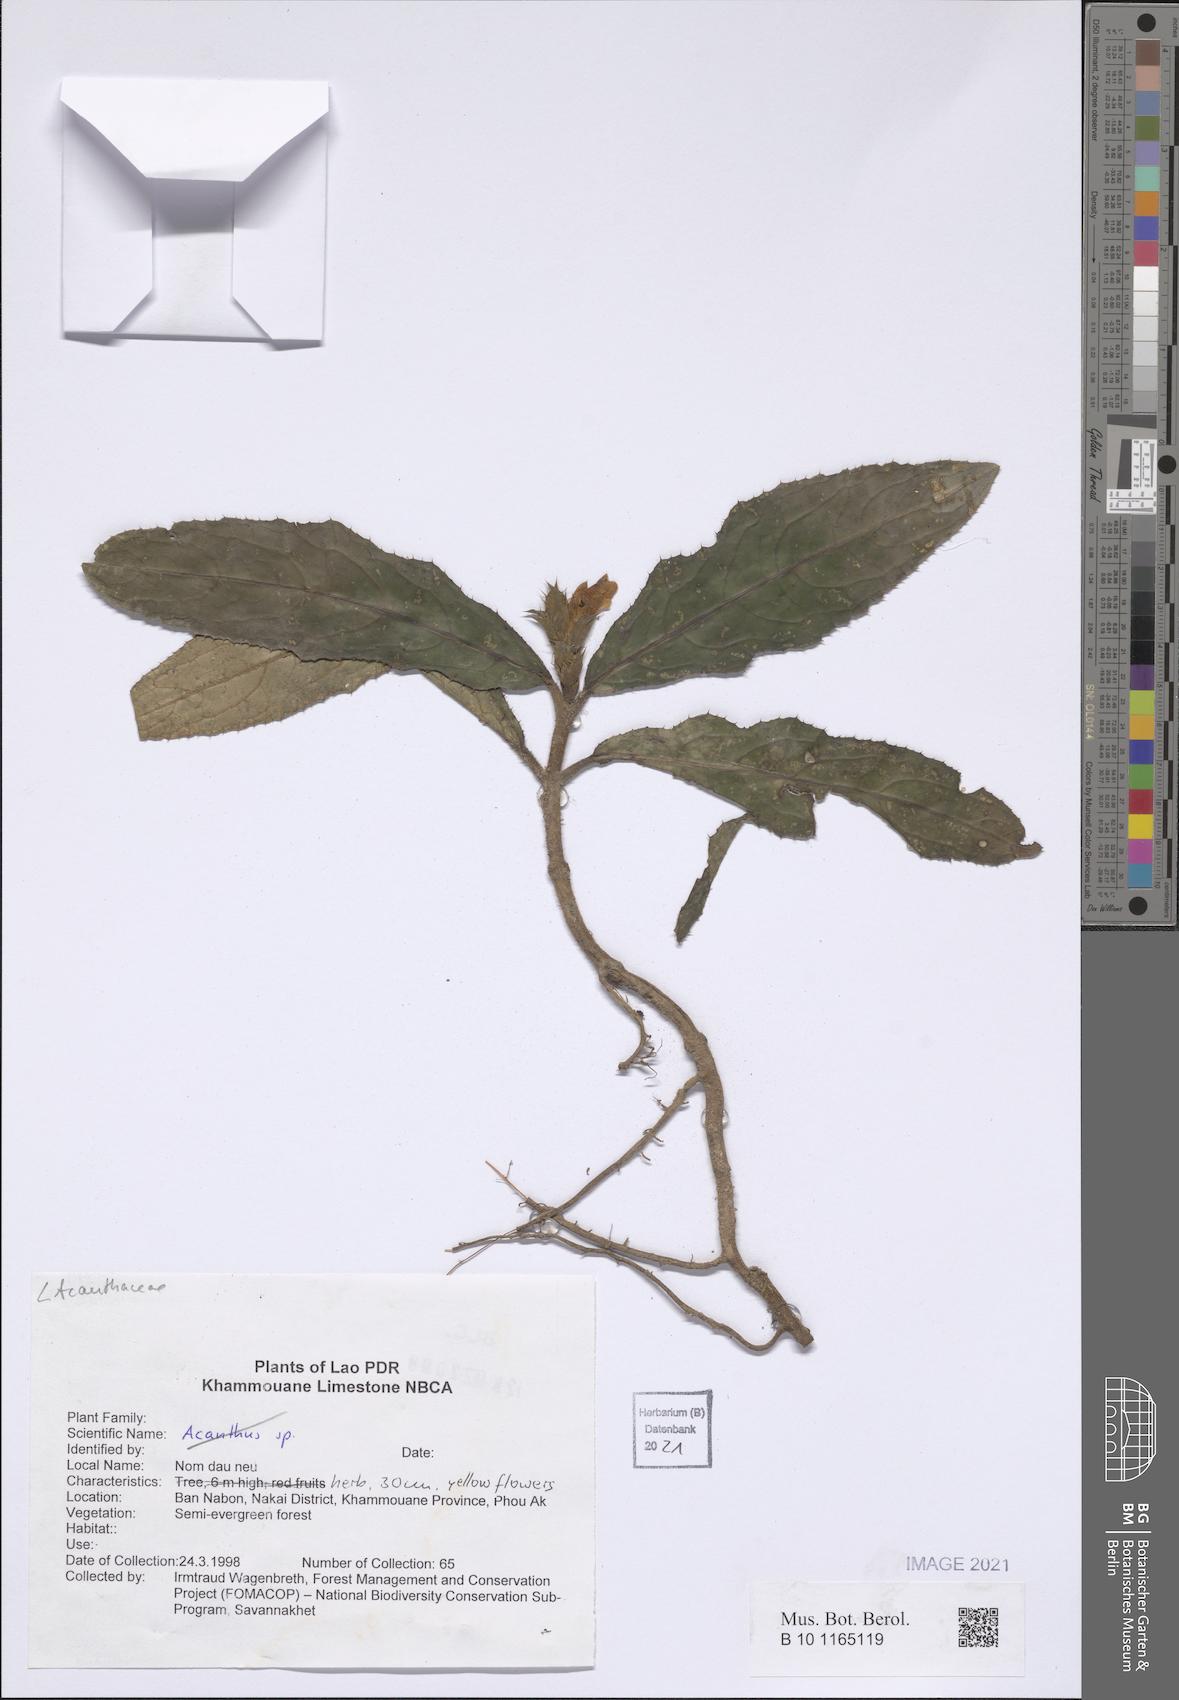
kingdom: Plantae
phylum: Tracheophyta
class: Magnoliopsida
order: Lamiales
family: Acanthaceae
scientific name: Acanthaceae
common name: Acanthaceae
